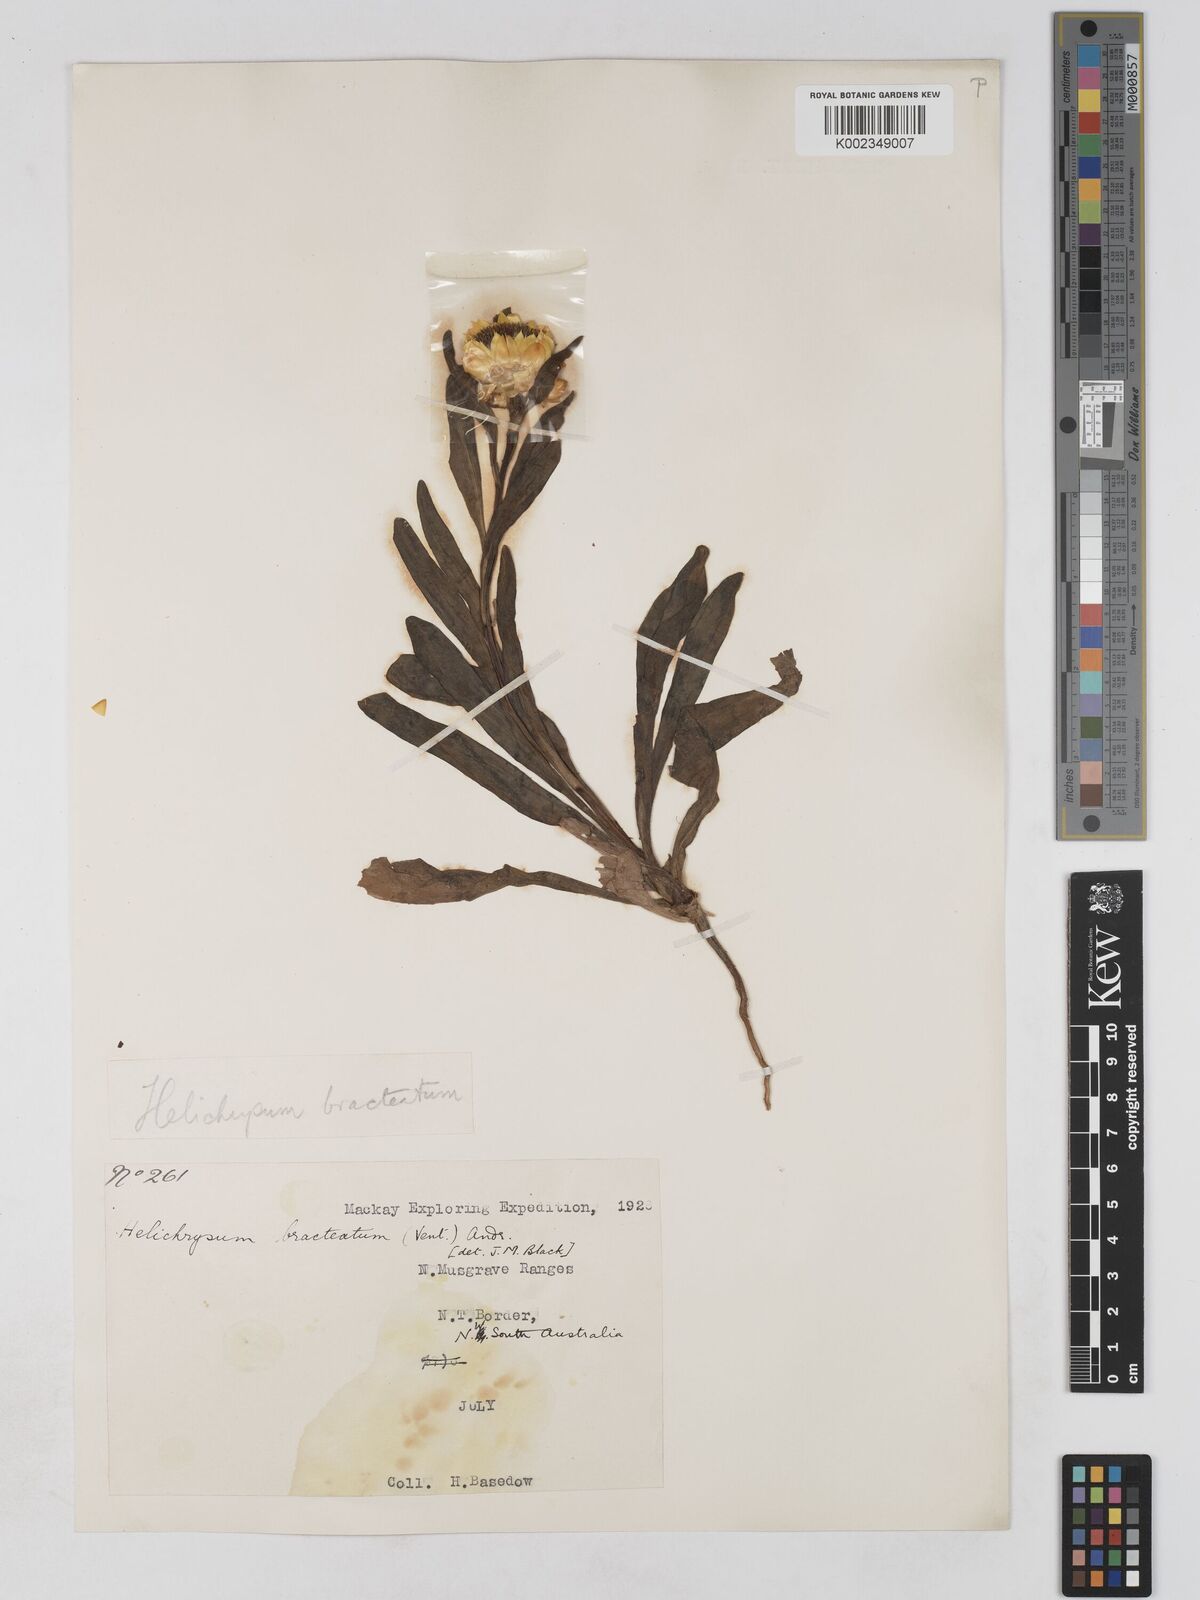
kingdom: Plantae
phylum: Tracheophyta
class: Magnoliopsida
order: Asterales
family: Asteraceae
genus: Xerochrysum
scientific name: Xerochrysum bracteatum
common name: Bracted strawflower
